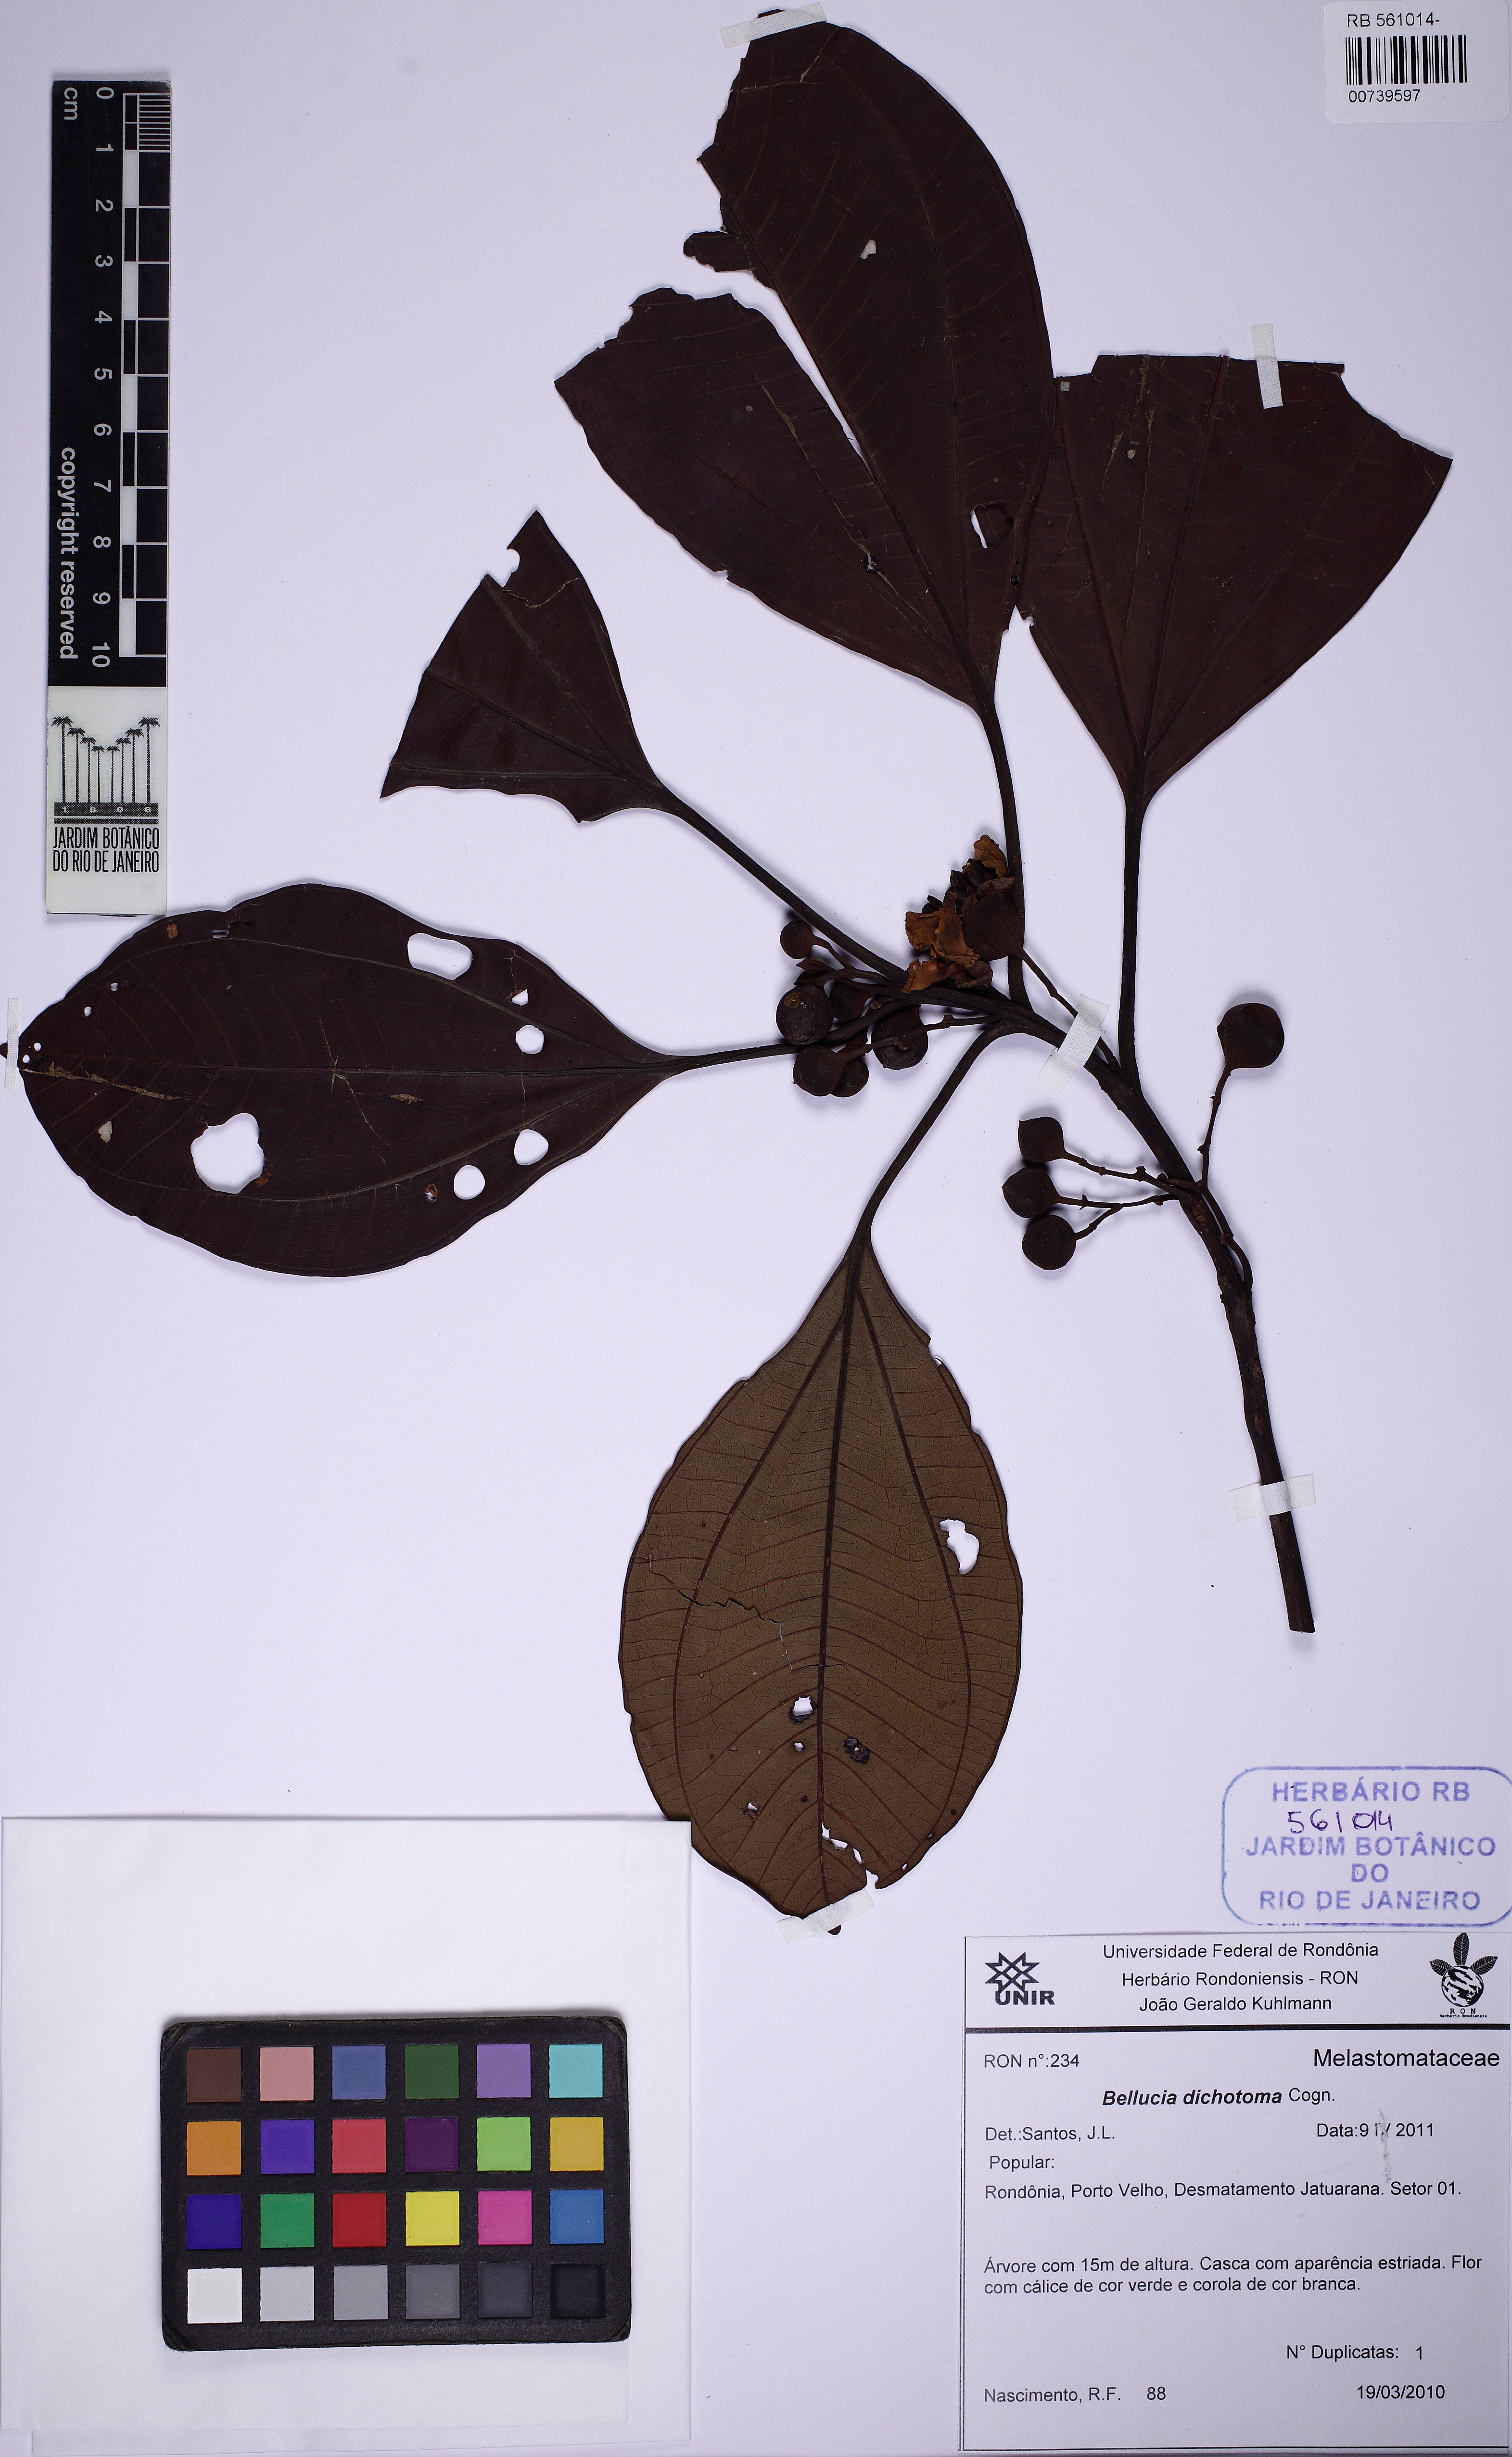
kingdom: Plantae
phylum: Tracheophyta
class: Magnoliopsida
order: Myrtales
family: Melastomataceae
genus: Bellucia
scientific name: Bellucia imperialis
